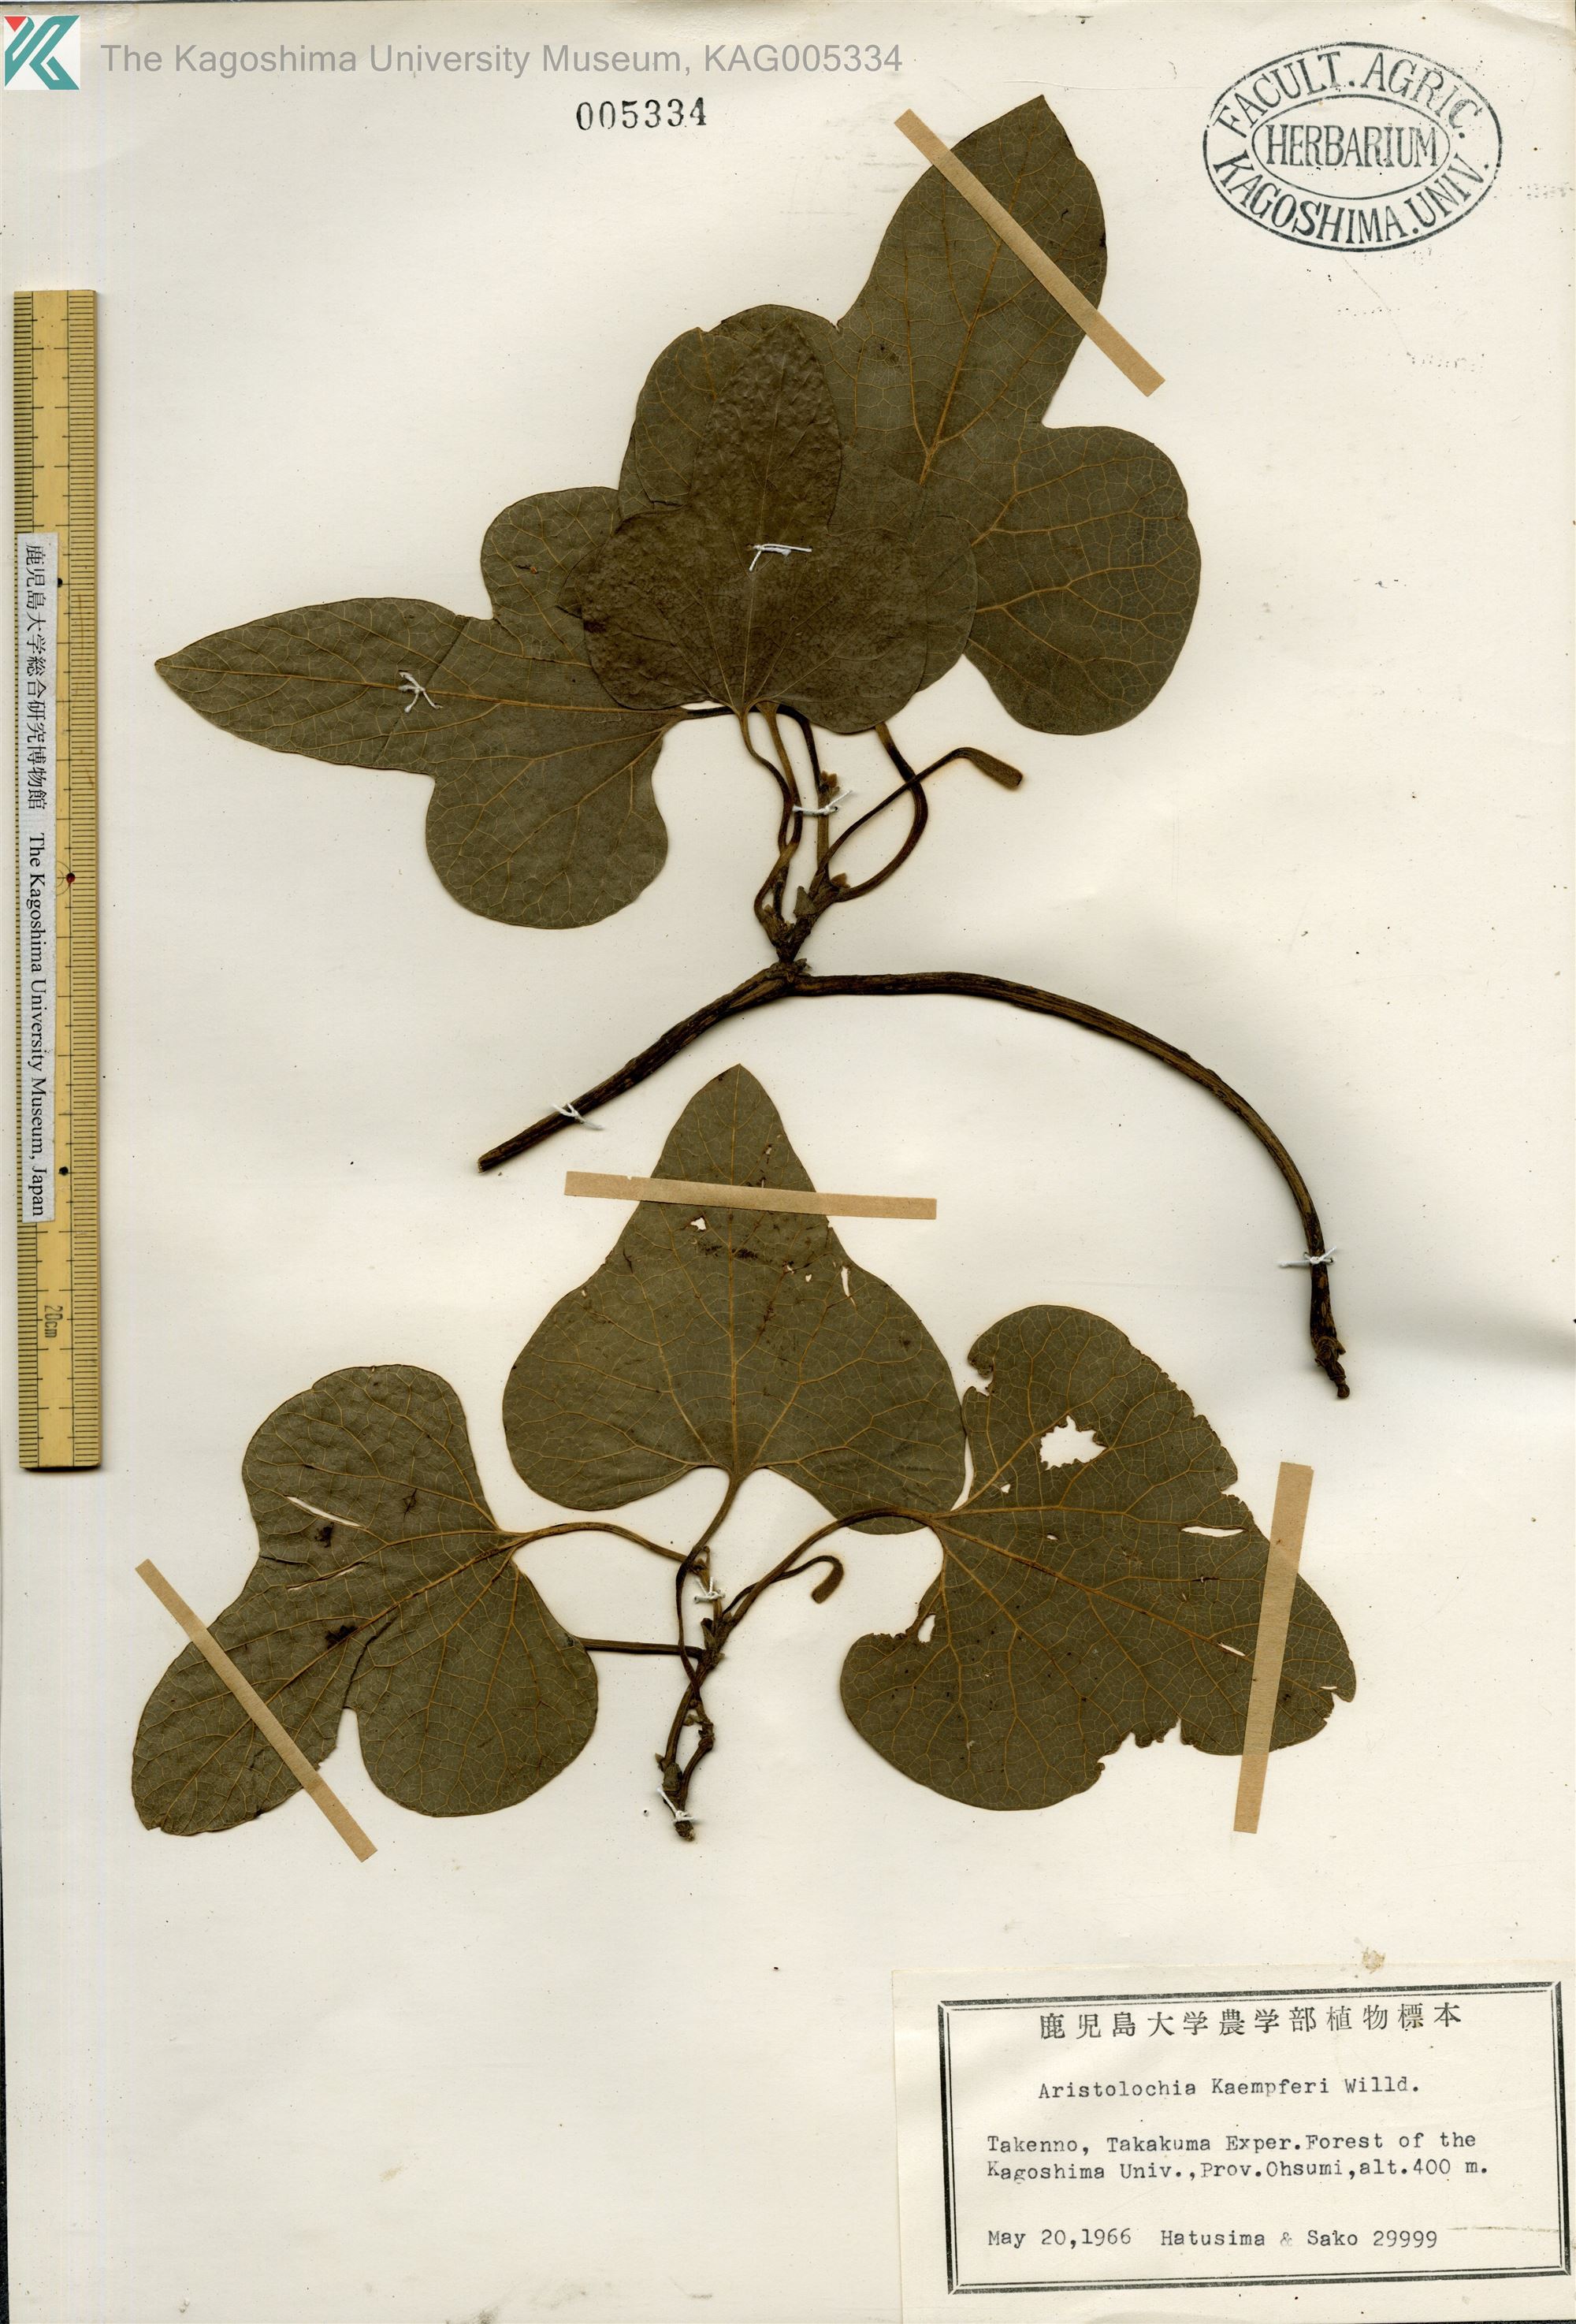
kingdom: Plantae
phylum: Tracheophyta
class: Magnoliopsida
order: Piperales
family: Aristolochiaceae
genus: Isotrema
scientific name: Isotrema kaempferi
